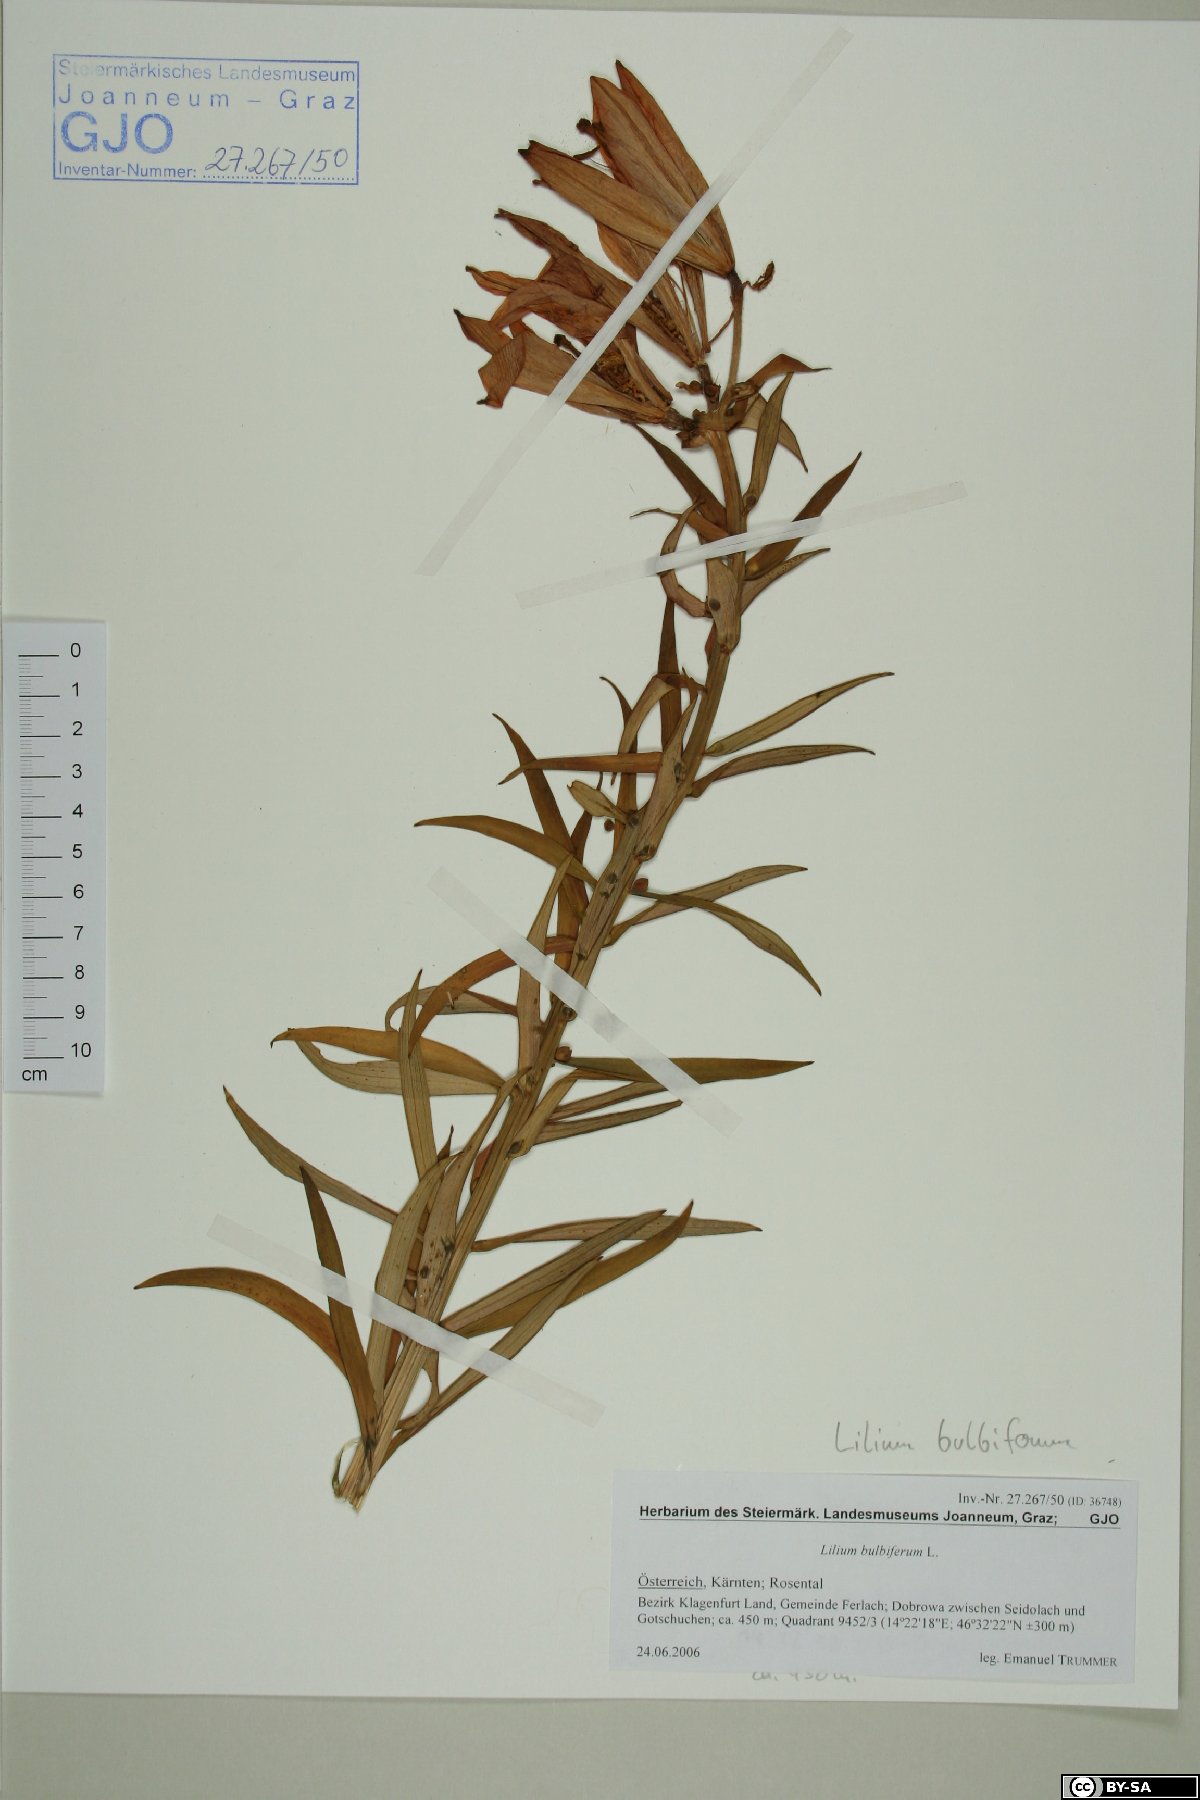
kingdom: Plantae
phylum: Tracheophyta
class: Liliopsida
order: Liliales
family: Liliaceae
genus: Lilium
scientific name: Lilium bulbiferum
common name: Orange lily
